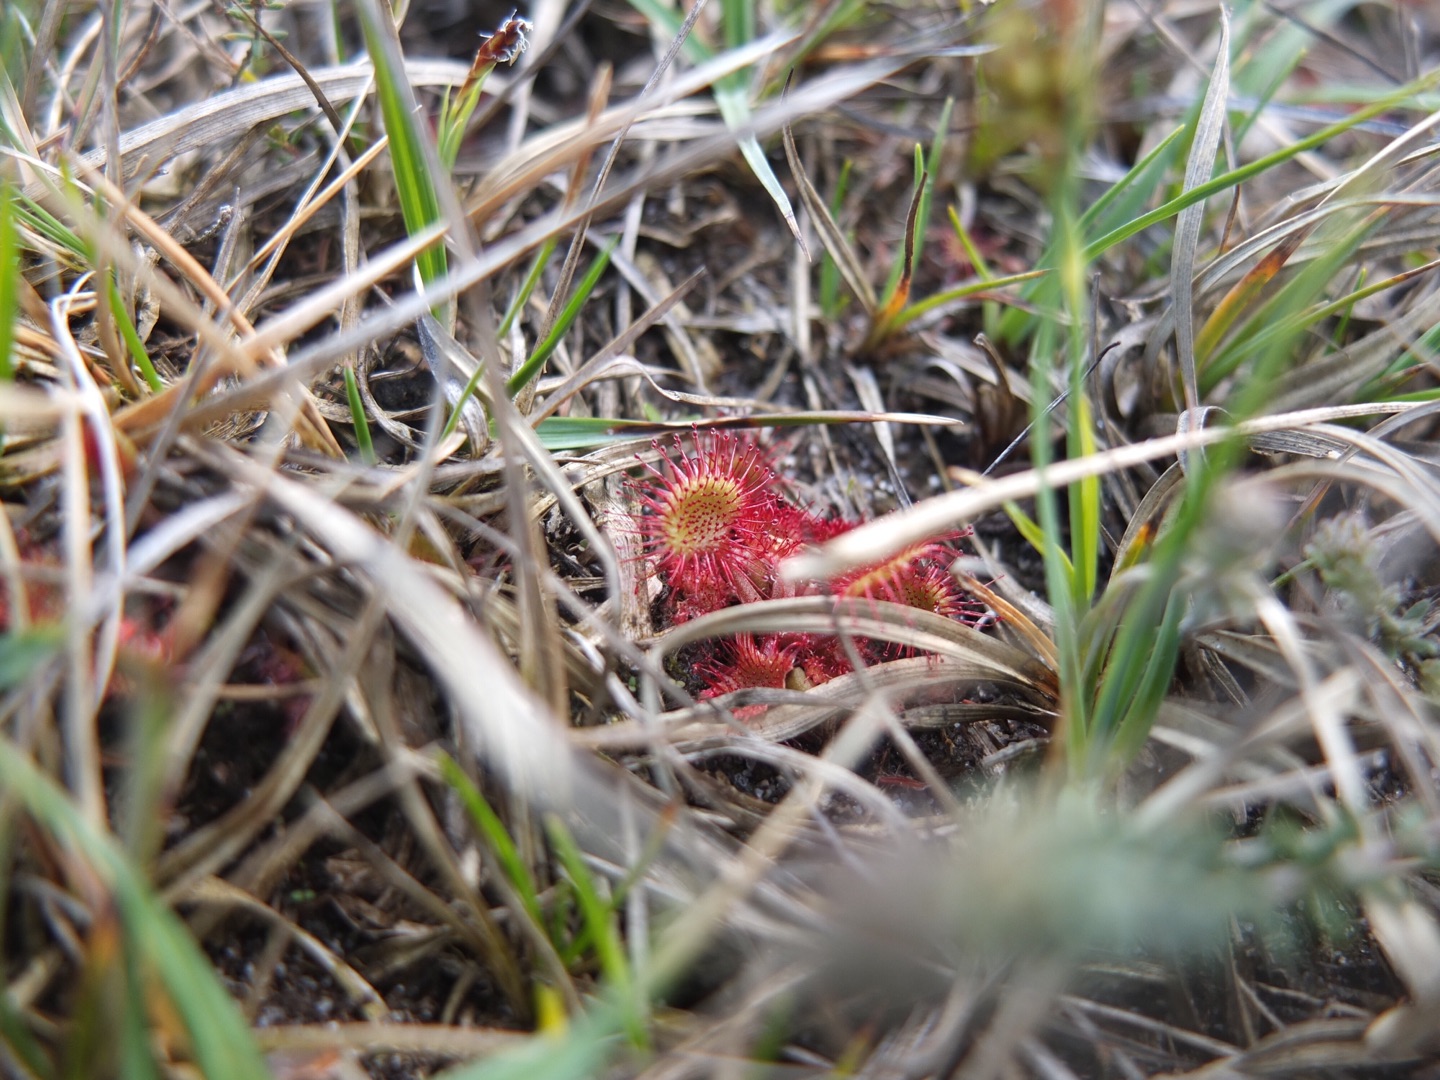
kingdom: Plantae
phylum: Tracheophyta
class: Magnoliopsida
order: Caryophyllales
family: Droseraceae
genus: Drosera
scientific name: Drosera rotundifolia
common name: Rundbladet soldug
